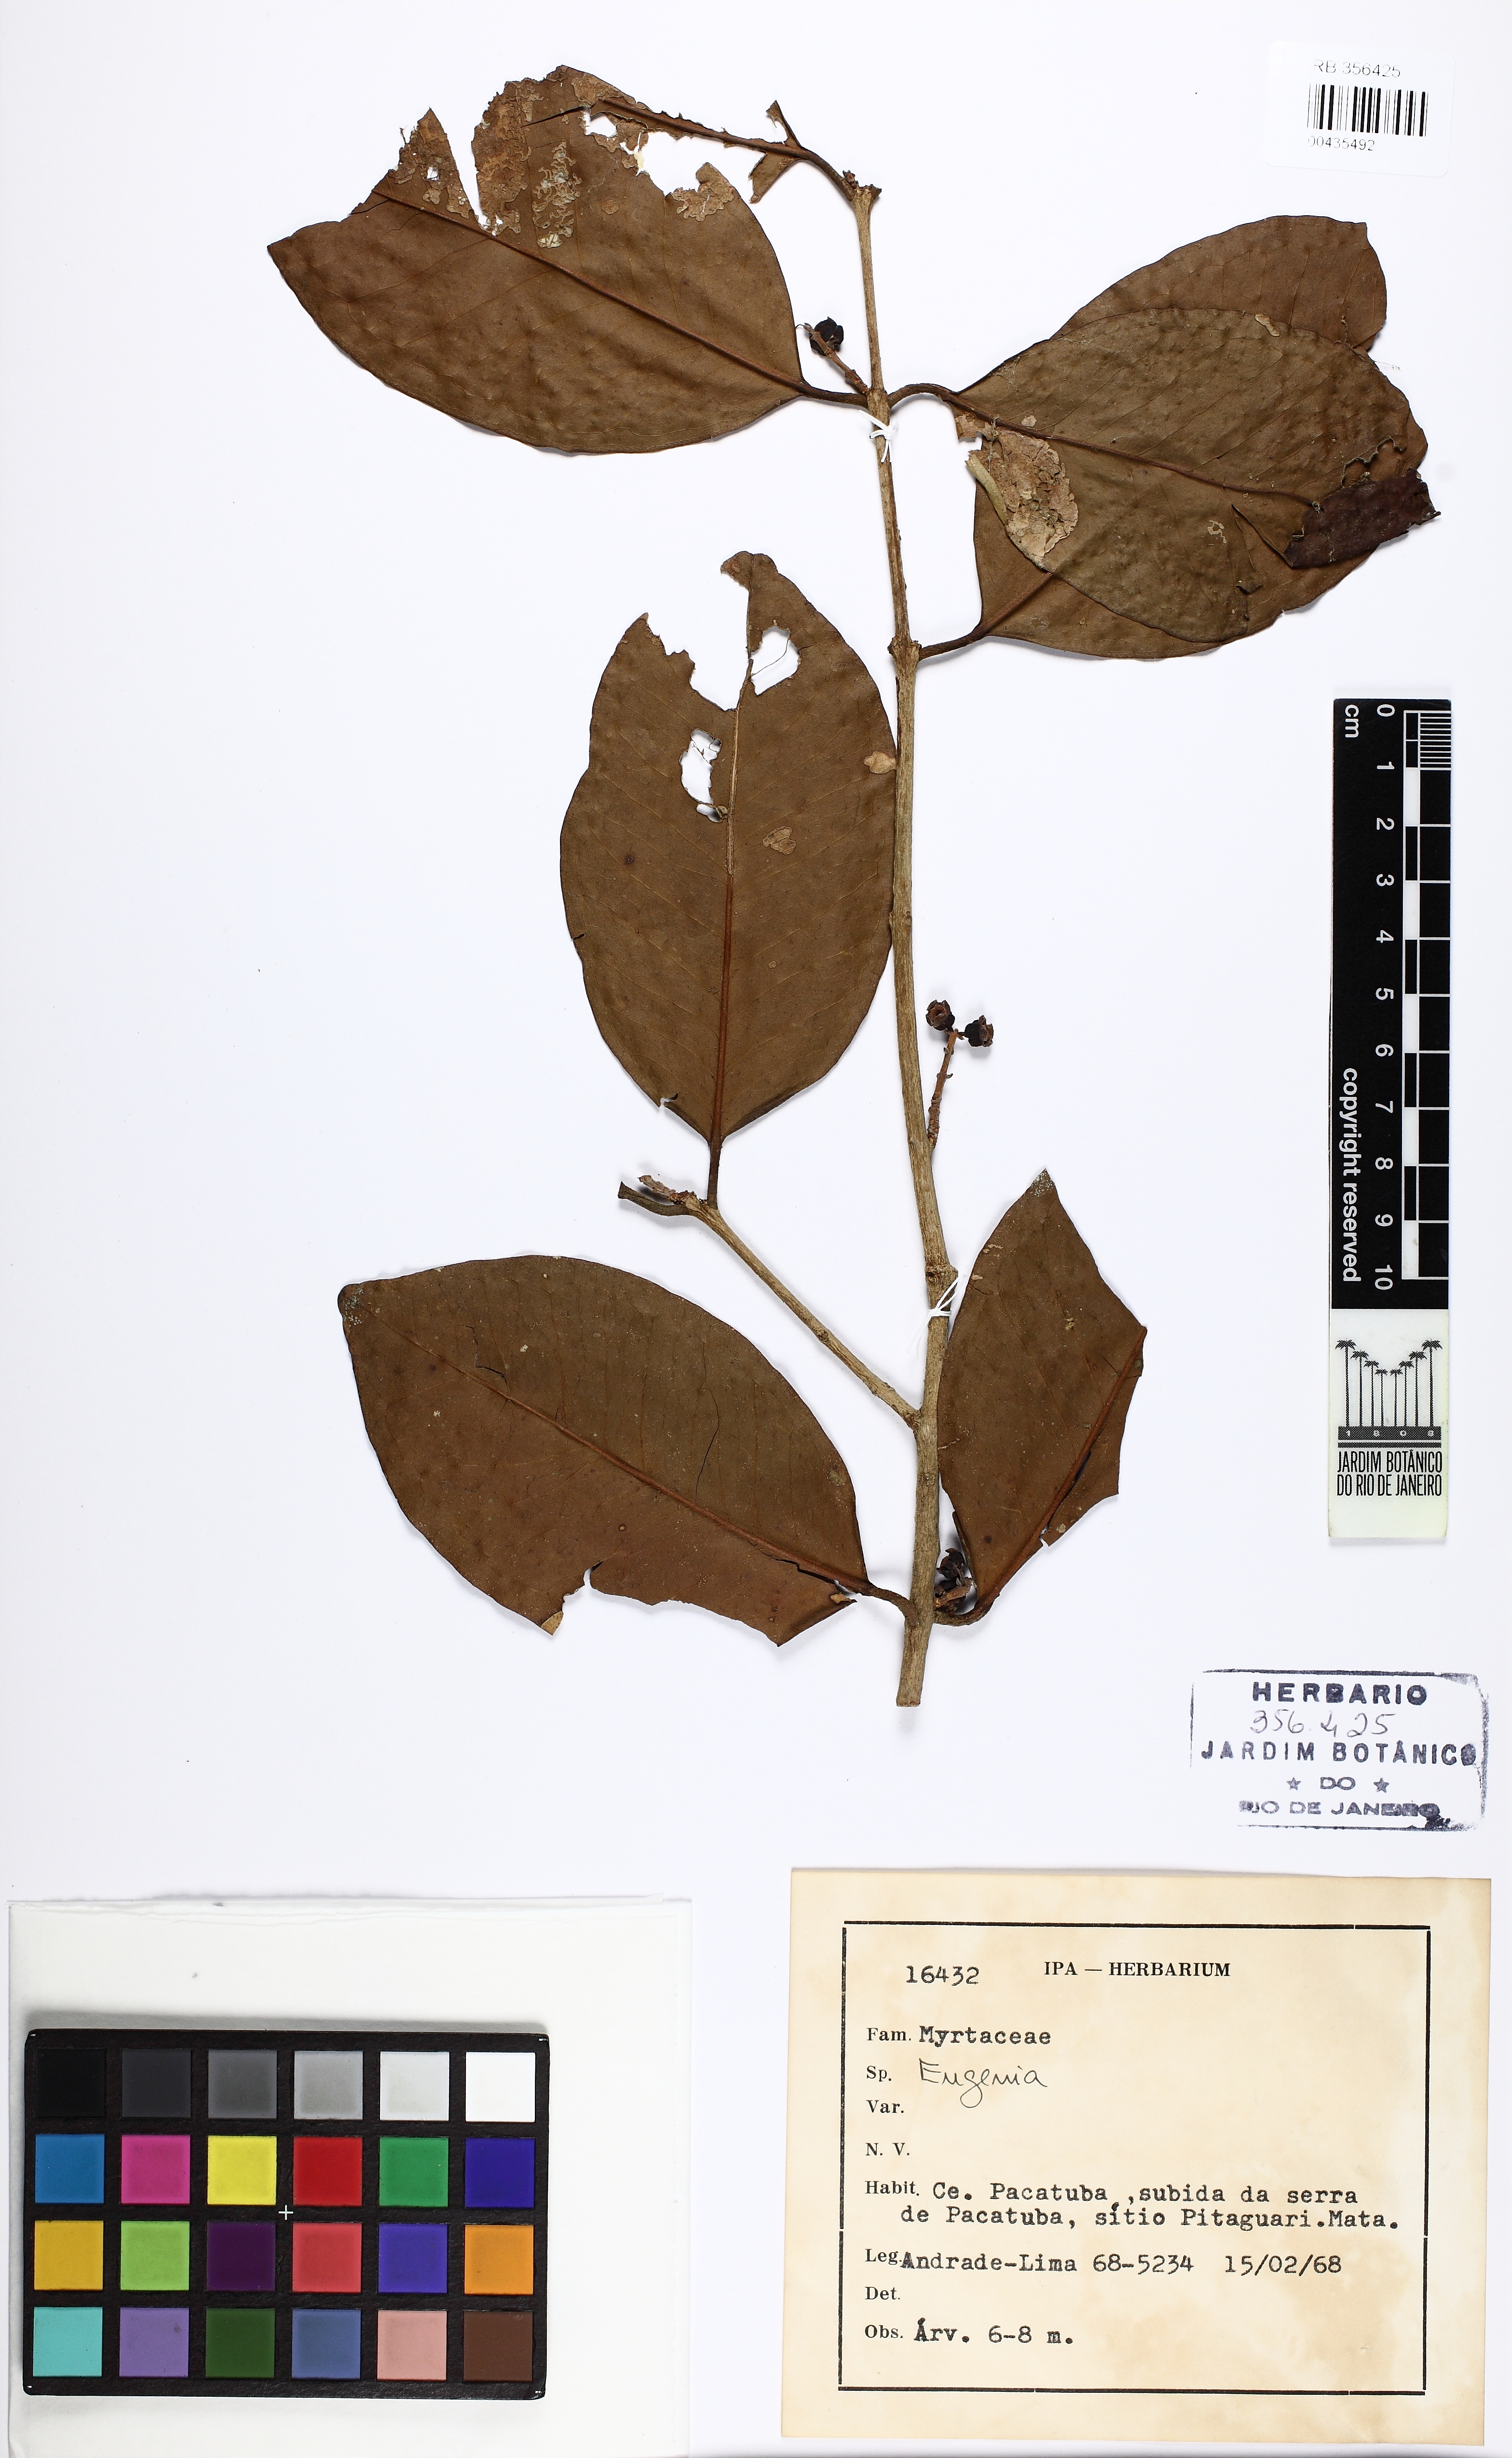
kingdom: Plantae
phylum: Tracheophyta
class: Magnoliopsida
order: Myrtales
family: Myrtaceae
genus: Eugenia
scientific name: Eugenia brejoensis
